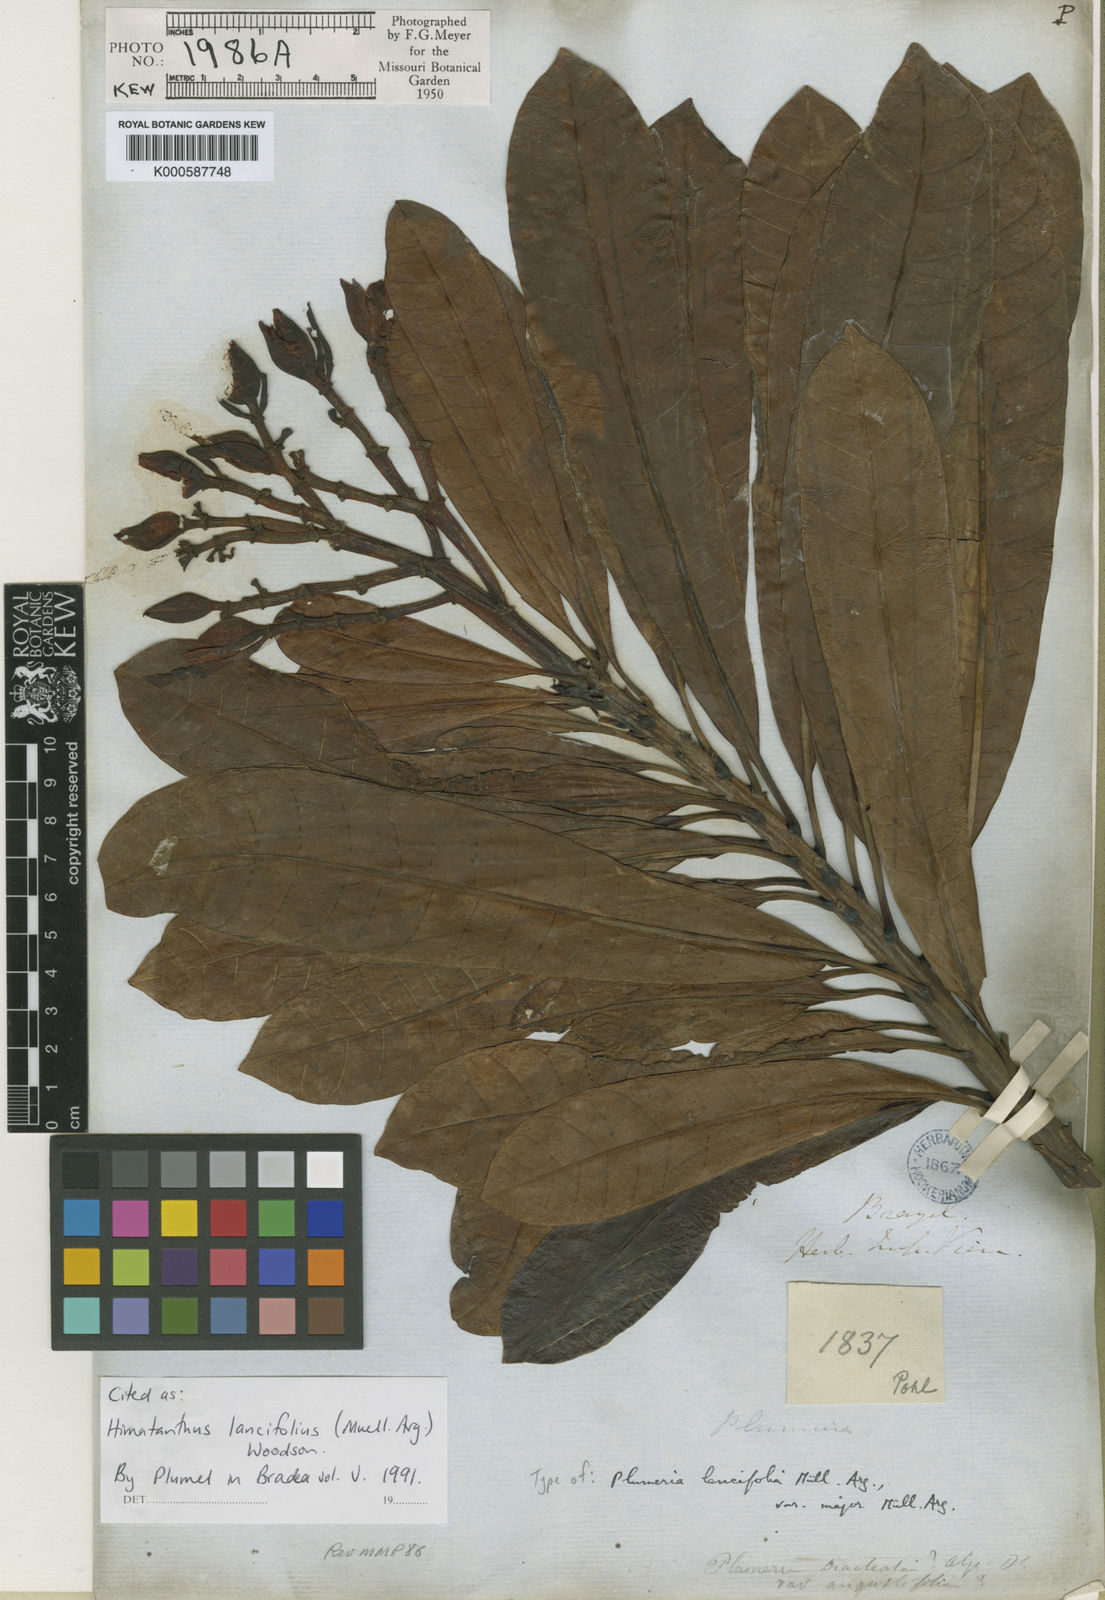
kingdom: Plantae
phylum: Tracheophyta
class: Magnoliopsida
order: Gentianales
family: Apocynaceae
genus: Himatanthus
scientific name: Himatanthus
